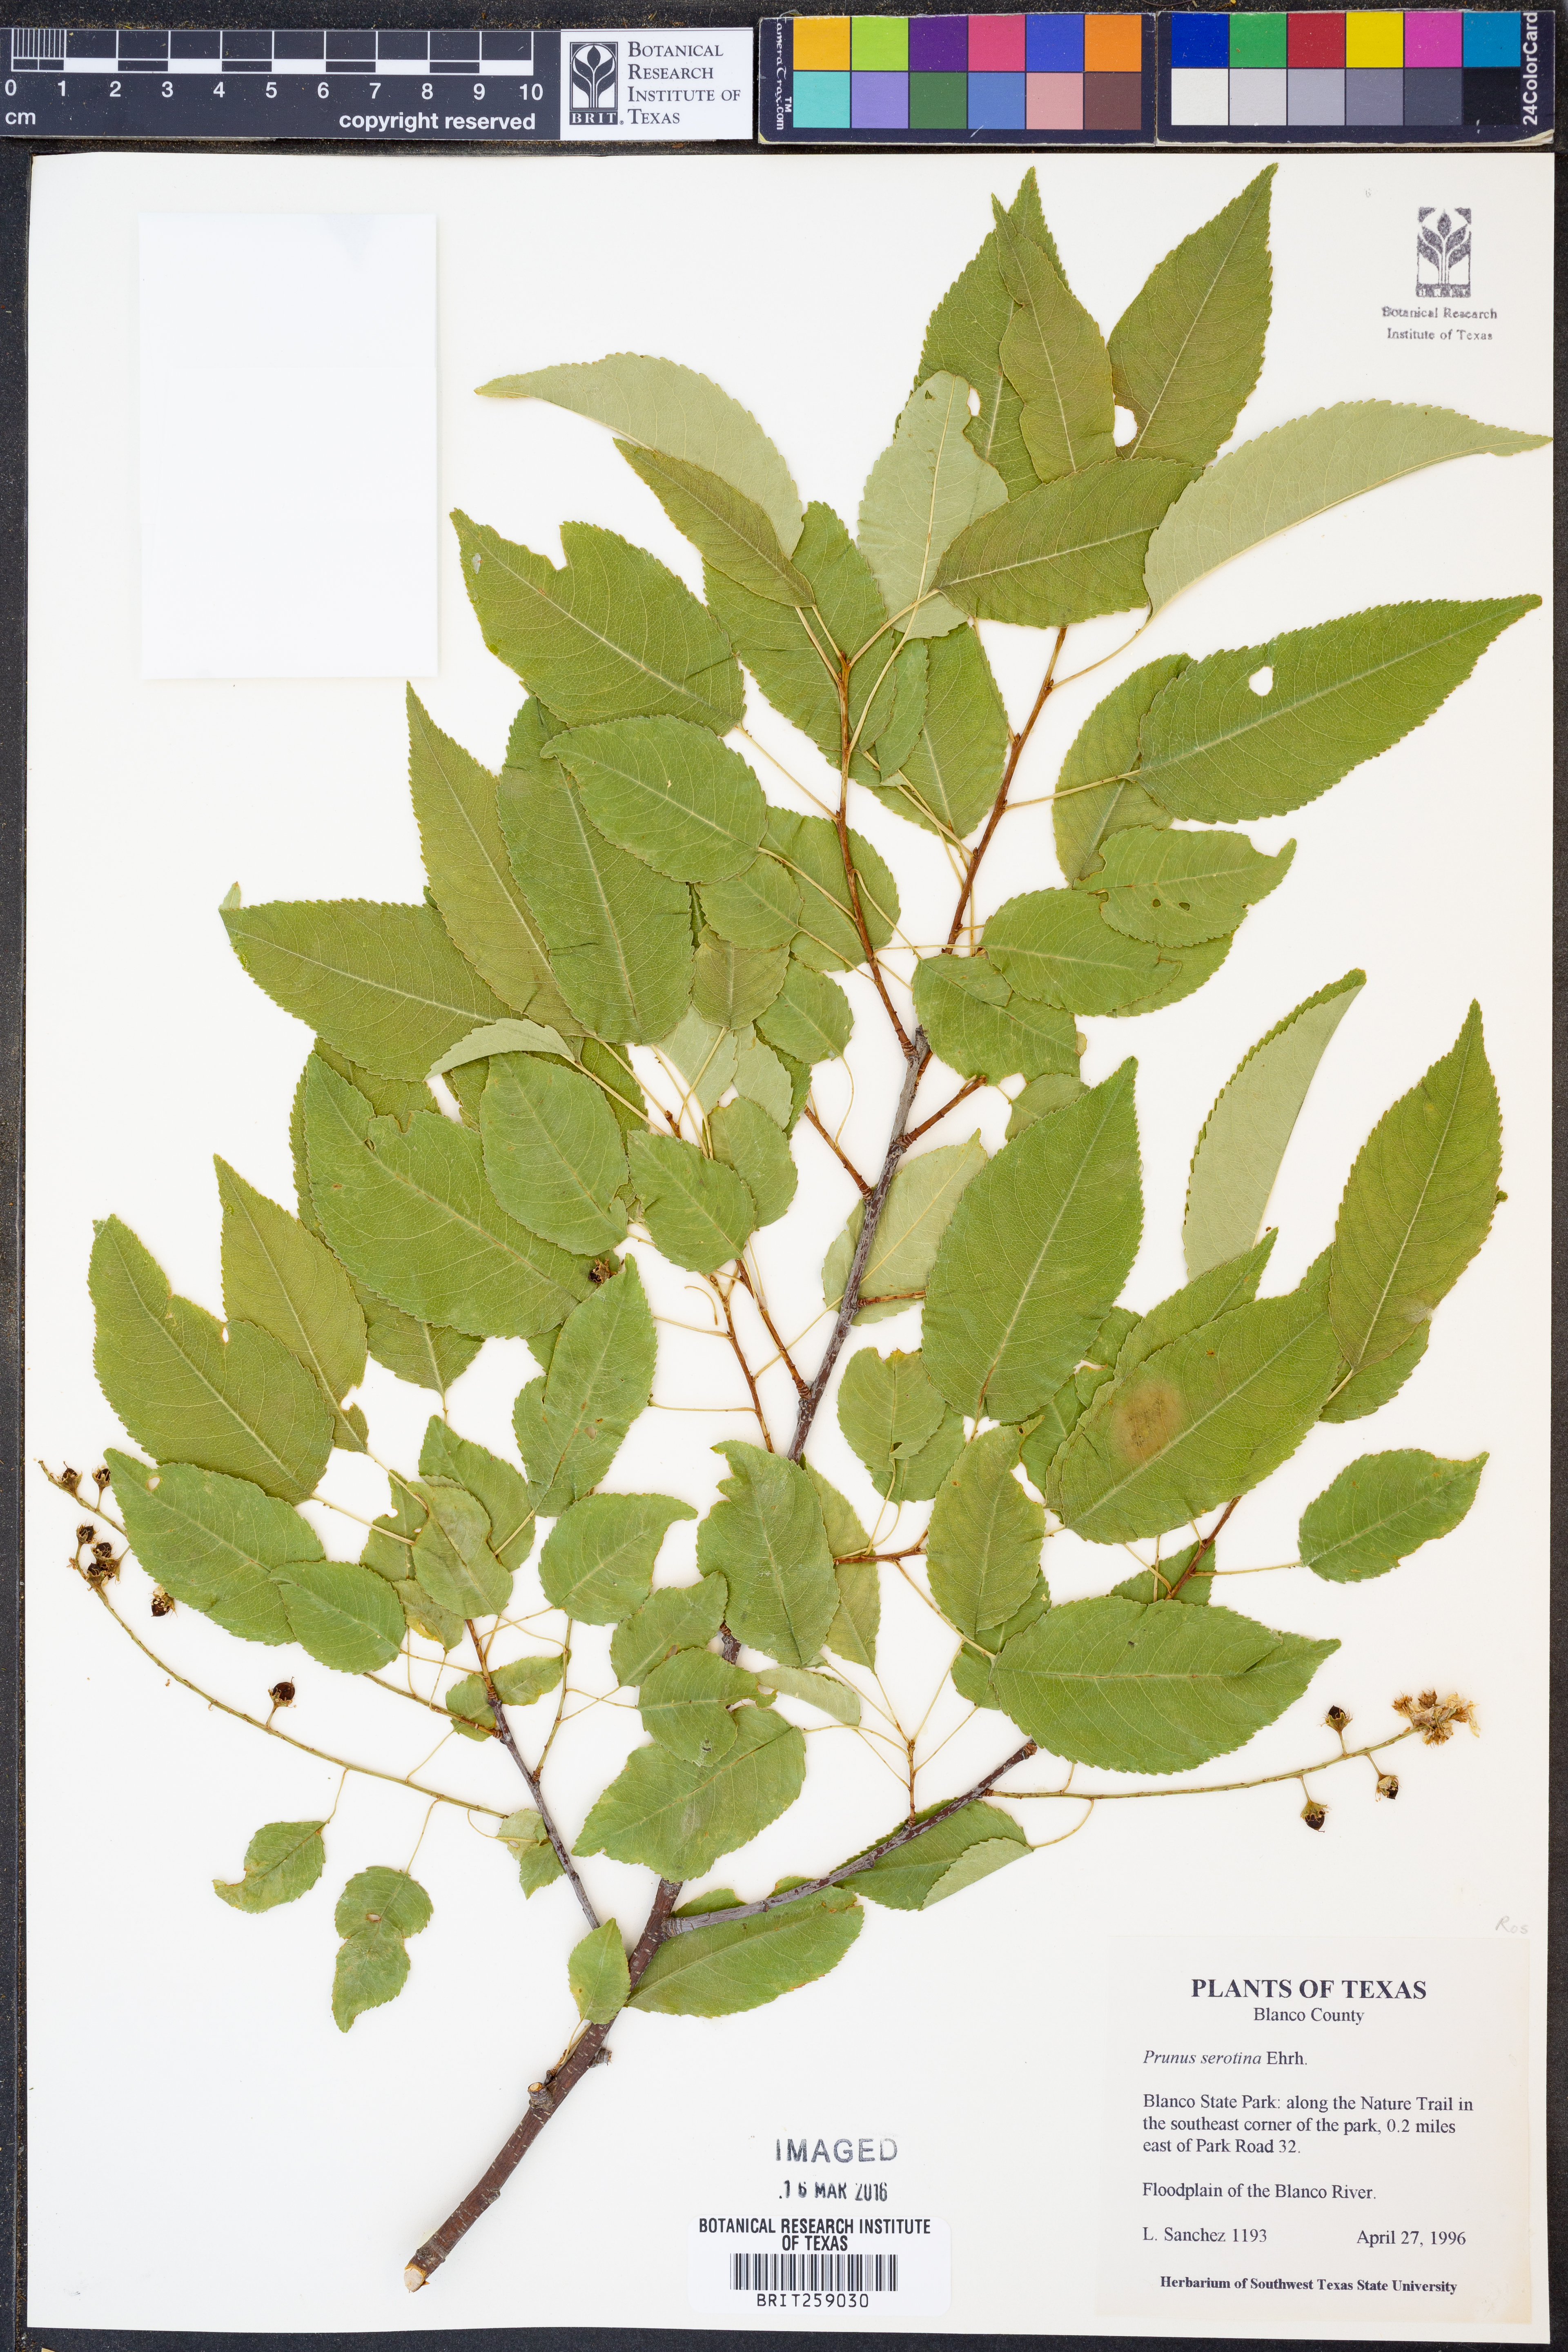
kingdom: Plantae
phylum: Tracheophyta
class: Magnoliopsida
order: Rosales
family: Rosaceae
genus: Prunus
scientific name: Prunus serotina
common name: Black cherry
